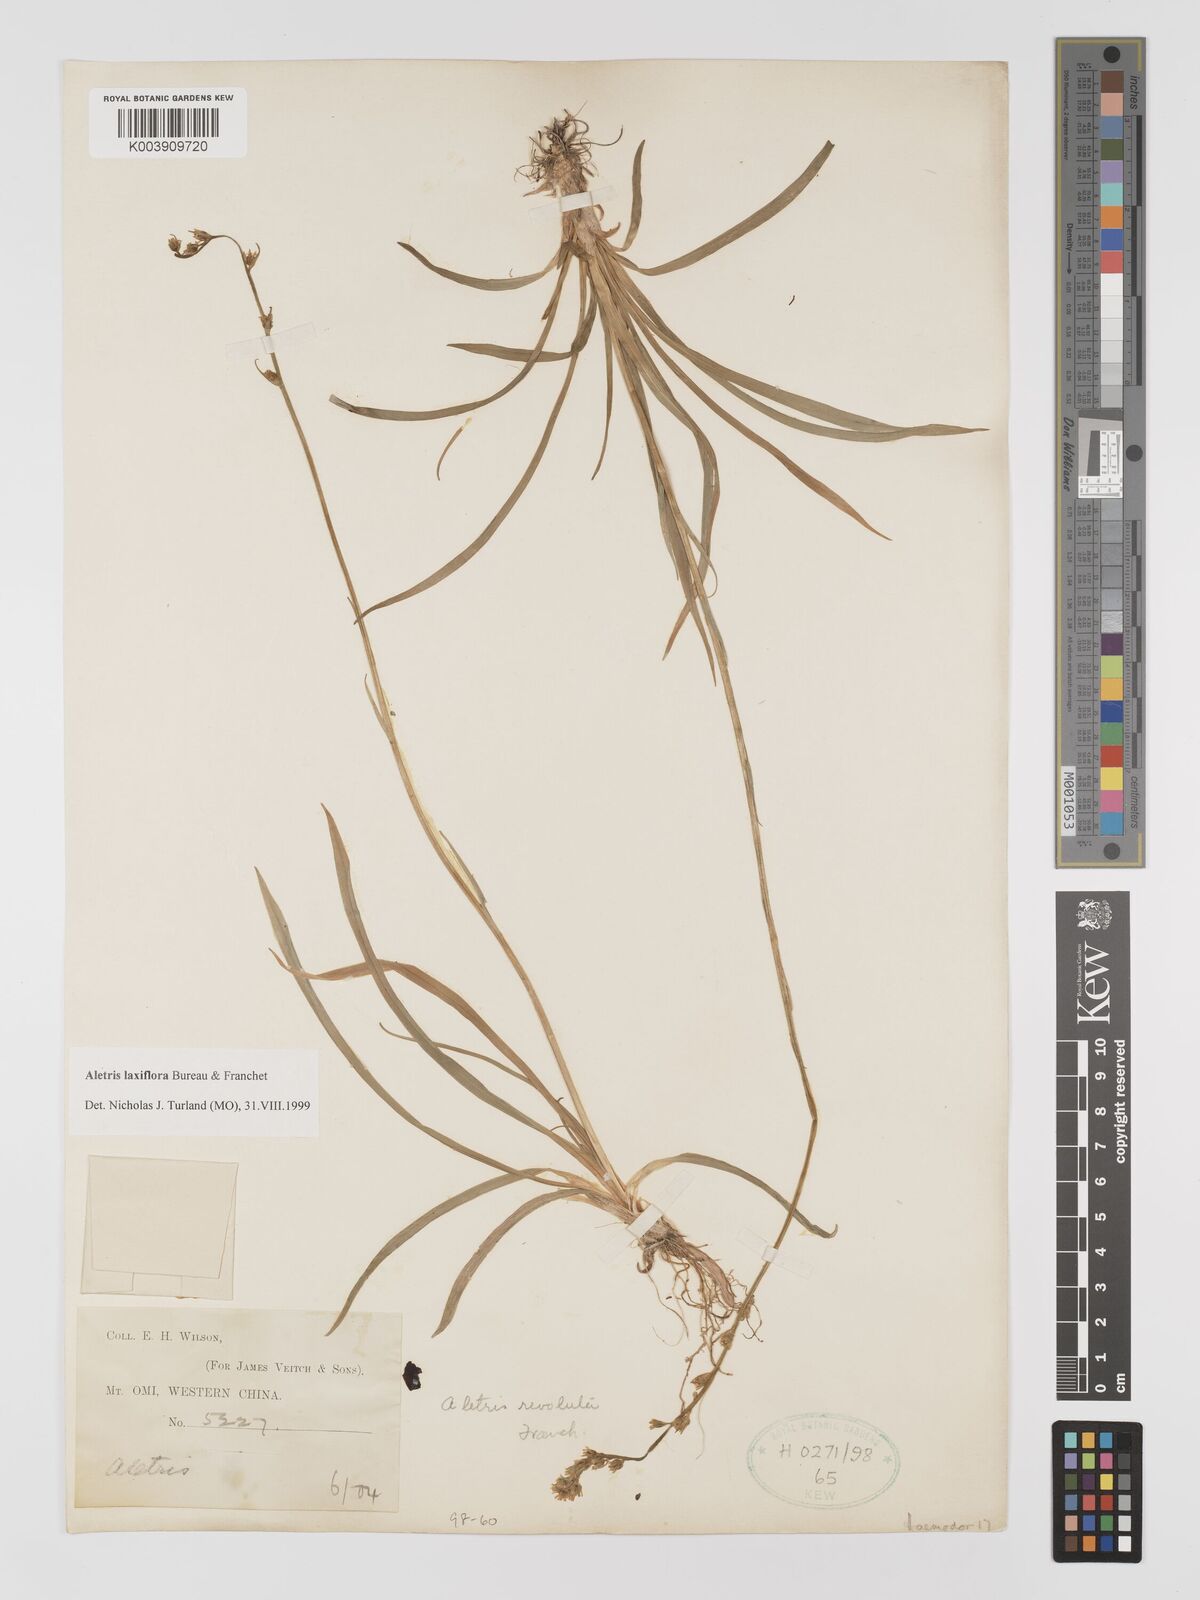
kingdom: Plantae
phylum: Tracheophyta
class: Liliopsida
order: Dioscoreales
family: Nartheciaceae
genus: Aletris
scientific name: Aletris laxiflora
